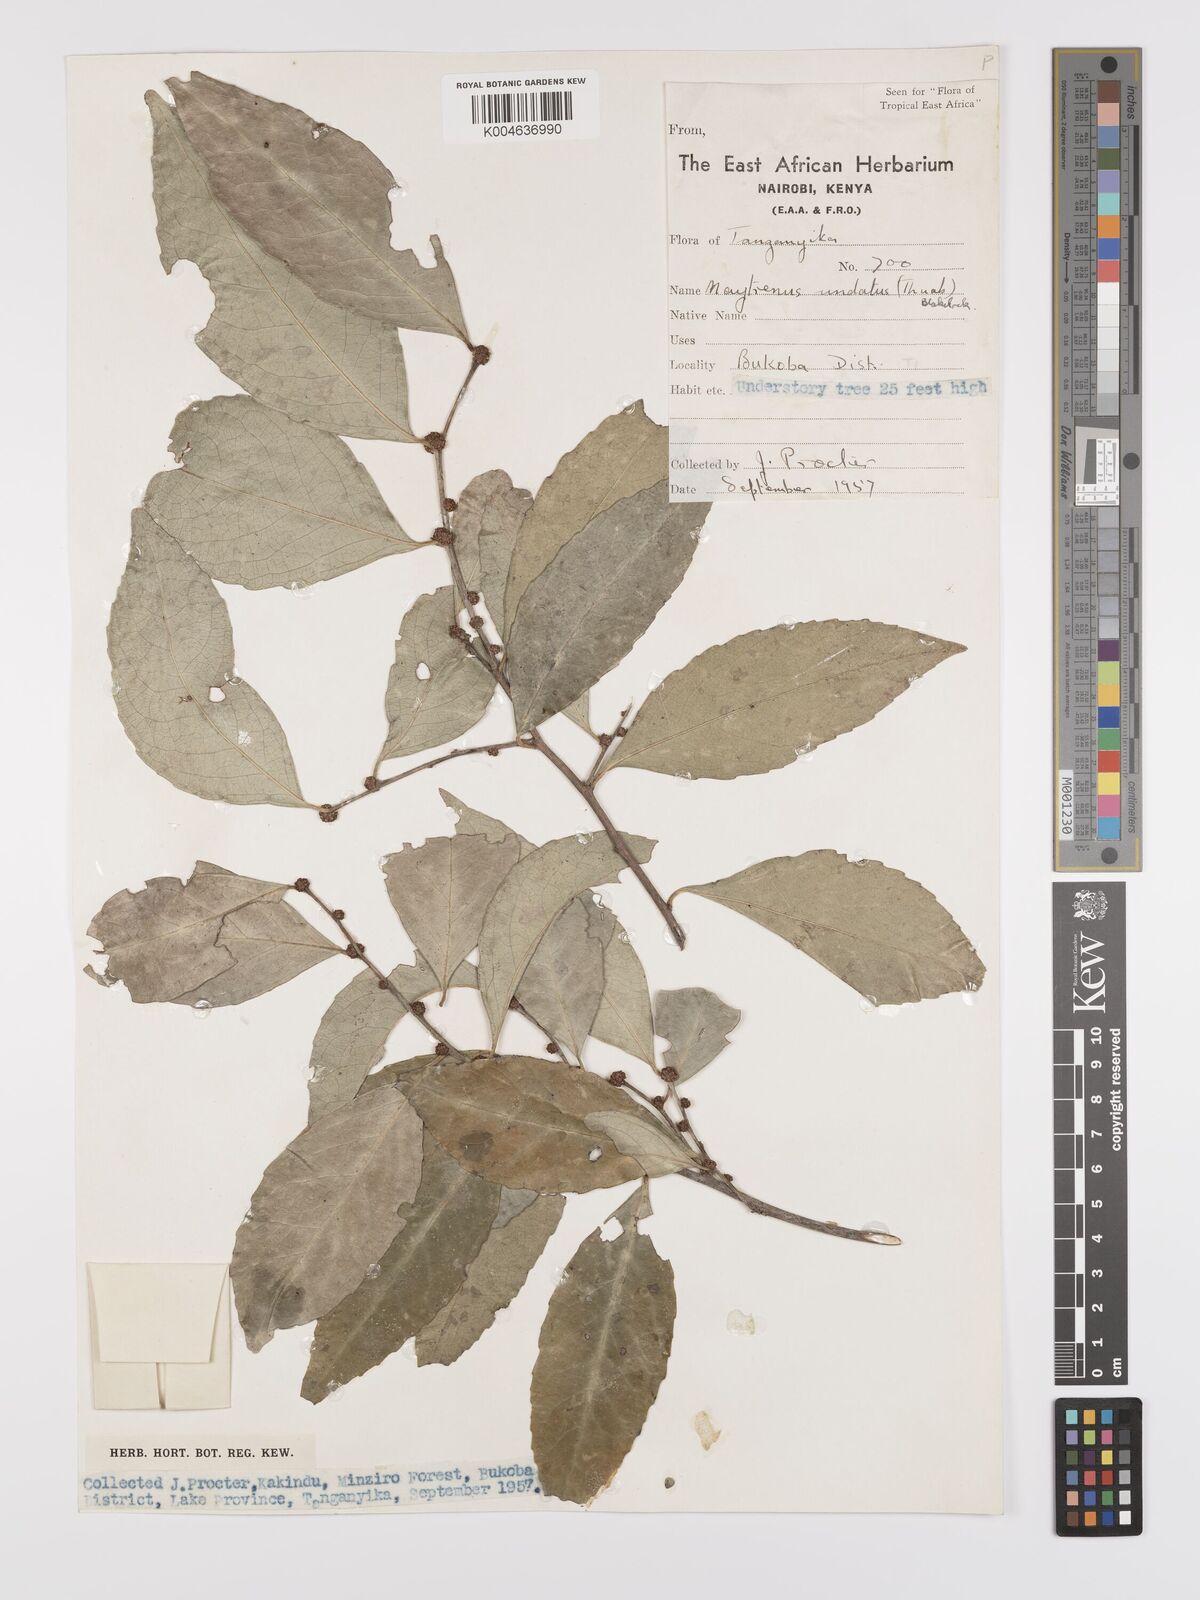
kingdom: Plantae
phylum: Tracheophyta
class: Magnoliopsida
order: Celastrales
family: Celastraceae
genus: Gymnosporia
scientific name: Gymnosporia undata
